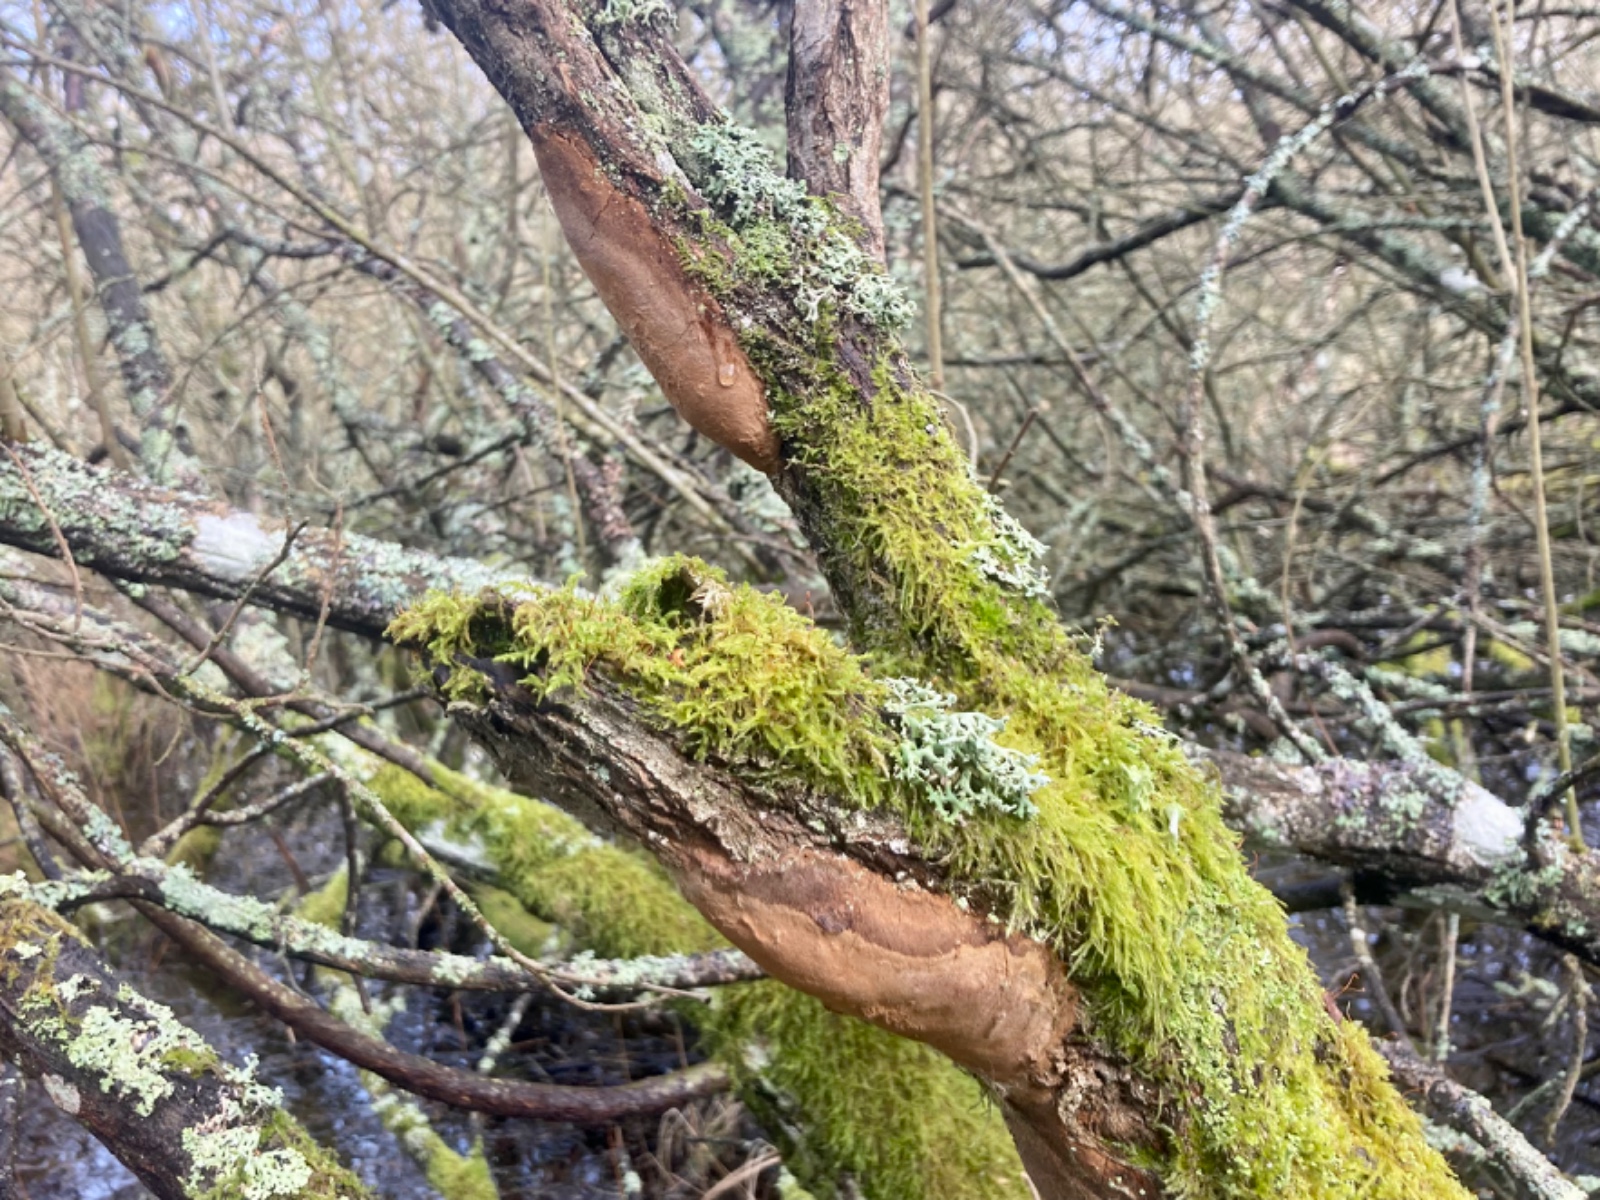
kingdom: Fungi
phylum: Basidiomycota
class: Agaricomycetes
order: Hymenochaetales
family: Hymenochaetaceae
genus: Fomitiporia
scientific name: Fomitiporia punctata
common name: pude-ildporesvamp
